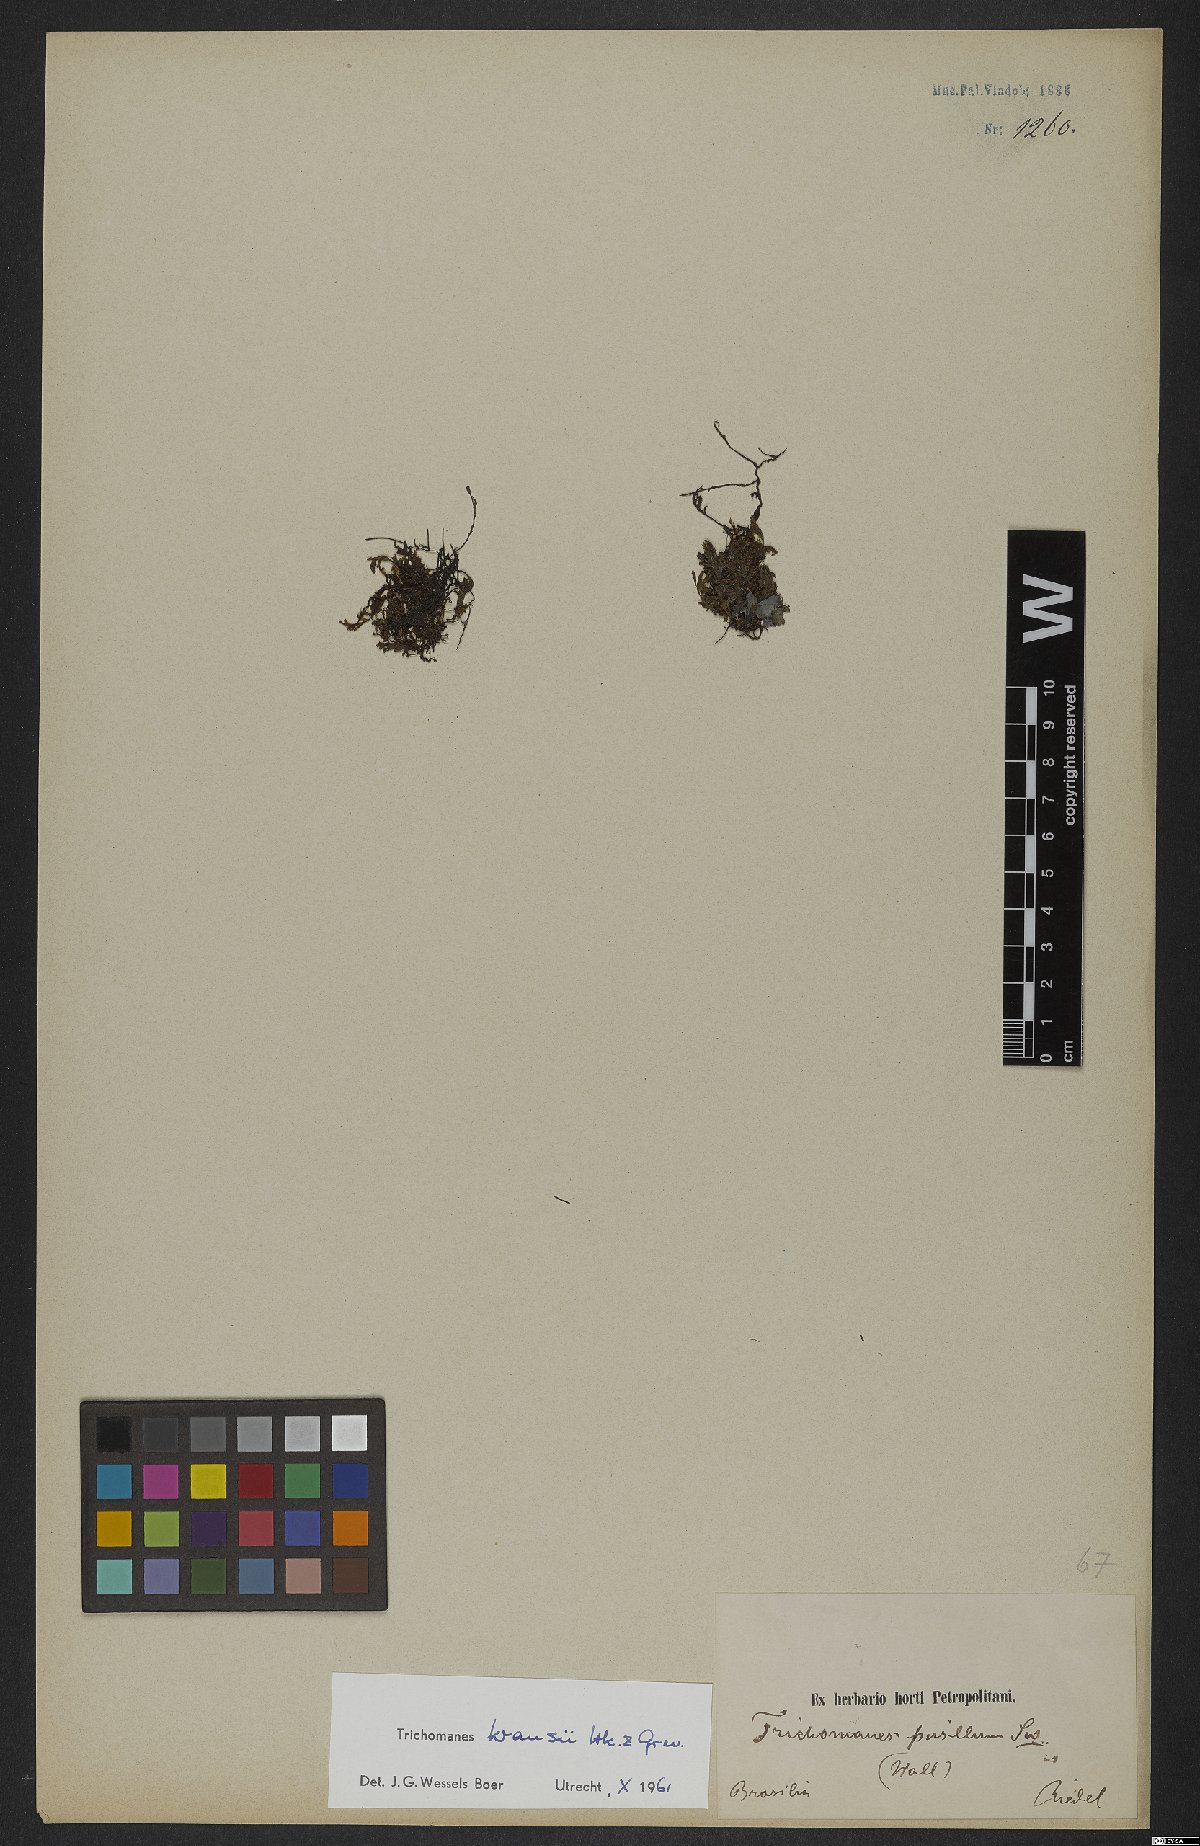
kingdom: Plantae
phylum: Tracheophyta
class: Polypodiopsida
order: Hymenophyllales
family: Hymenophyllaceae
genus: Didymoglossum
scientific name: Didymoglossum kraussii
